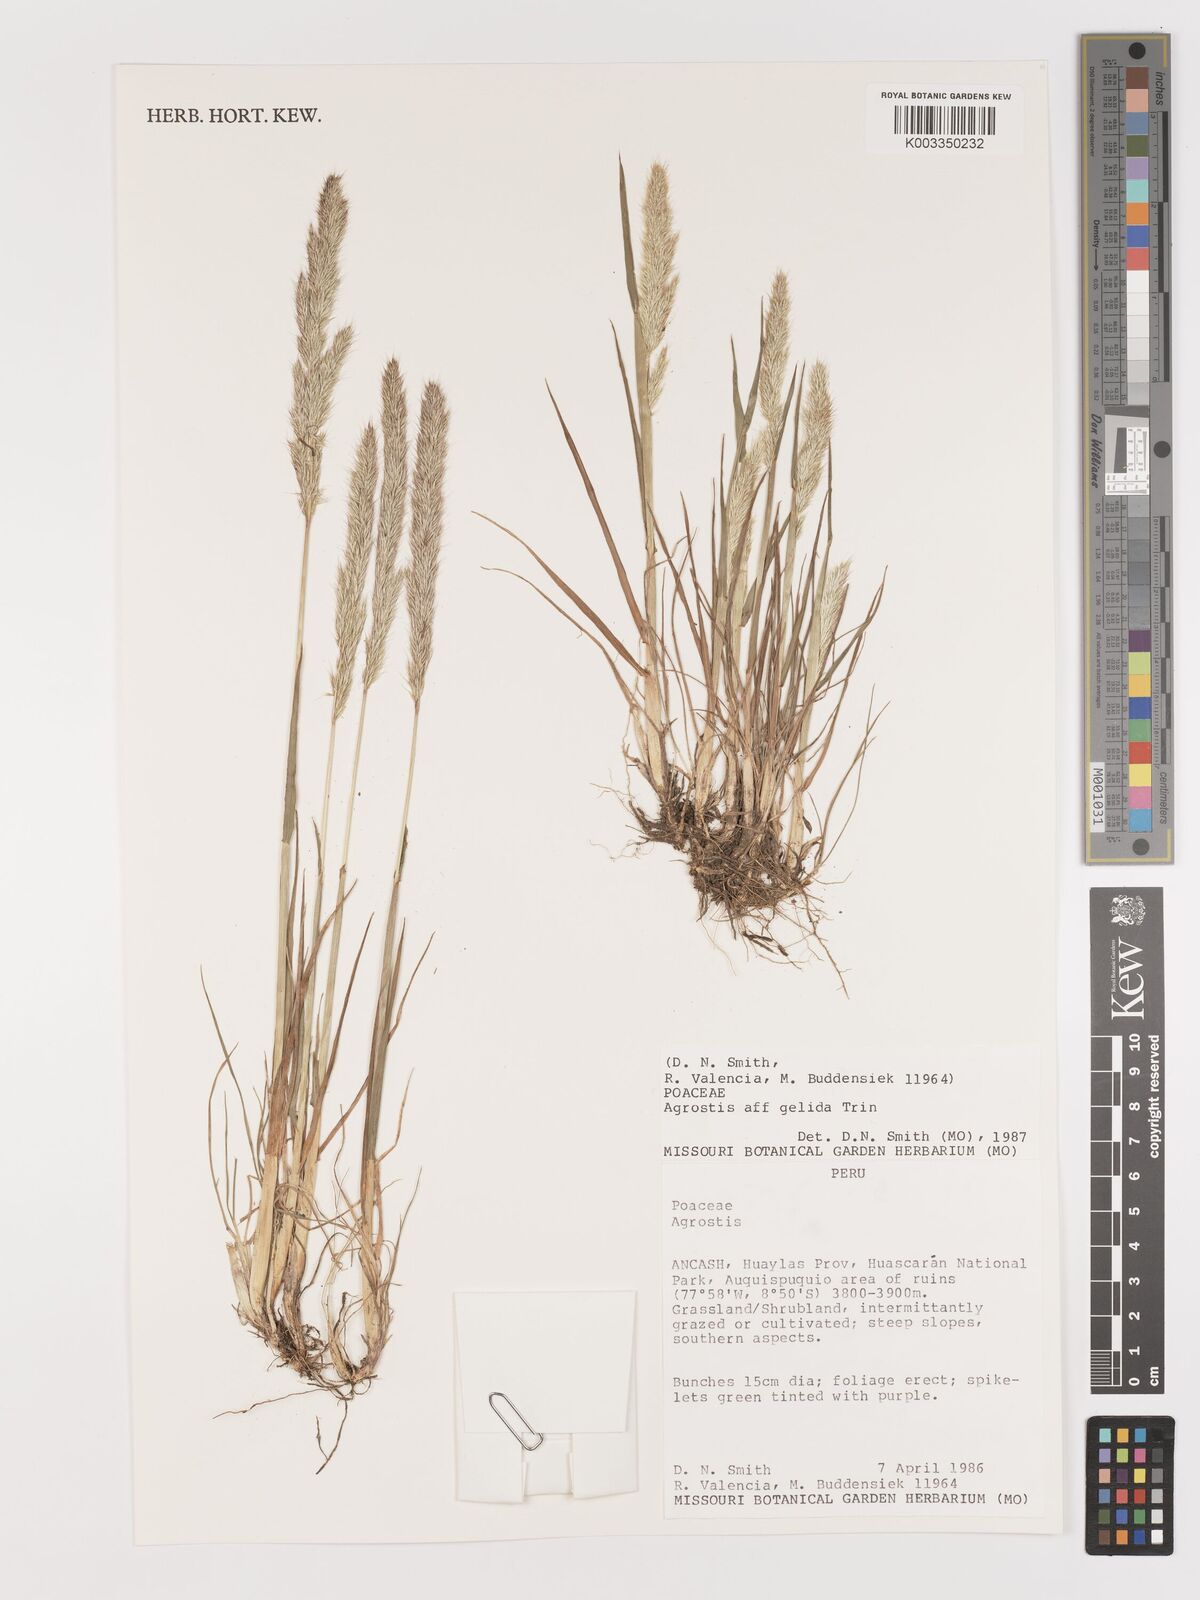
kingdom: Plantae
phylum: Tracheophyta
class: Liliopsida
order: Poales
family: Poaceae
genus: Agrostis
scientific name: Agrostis
